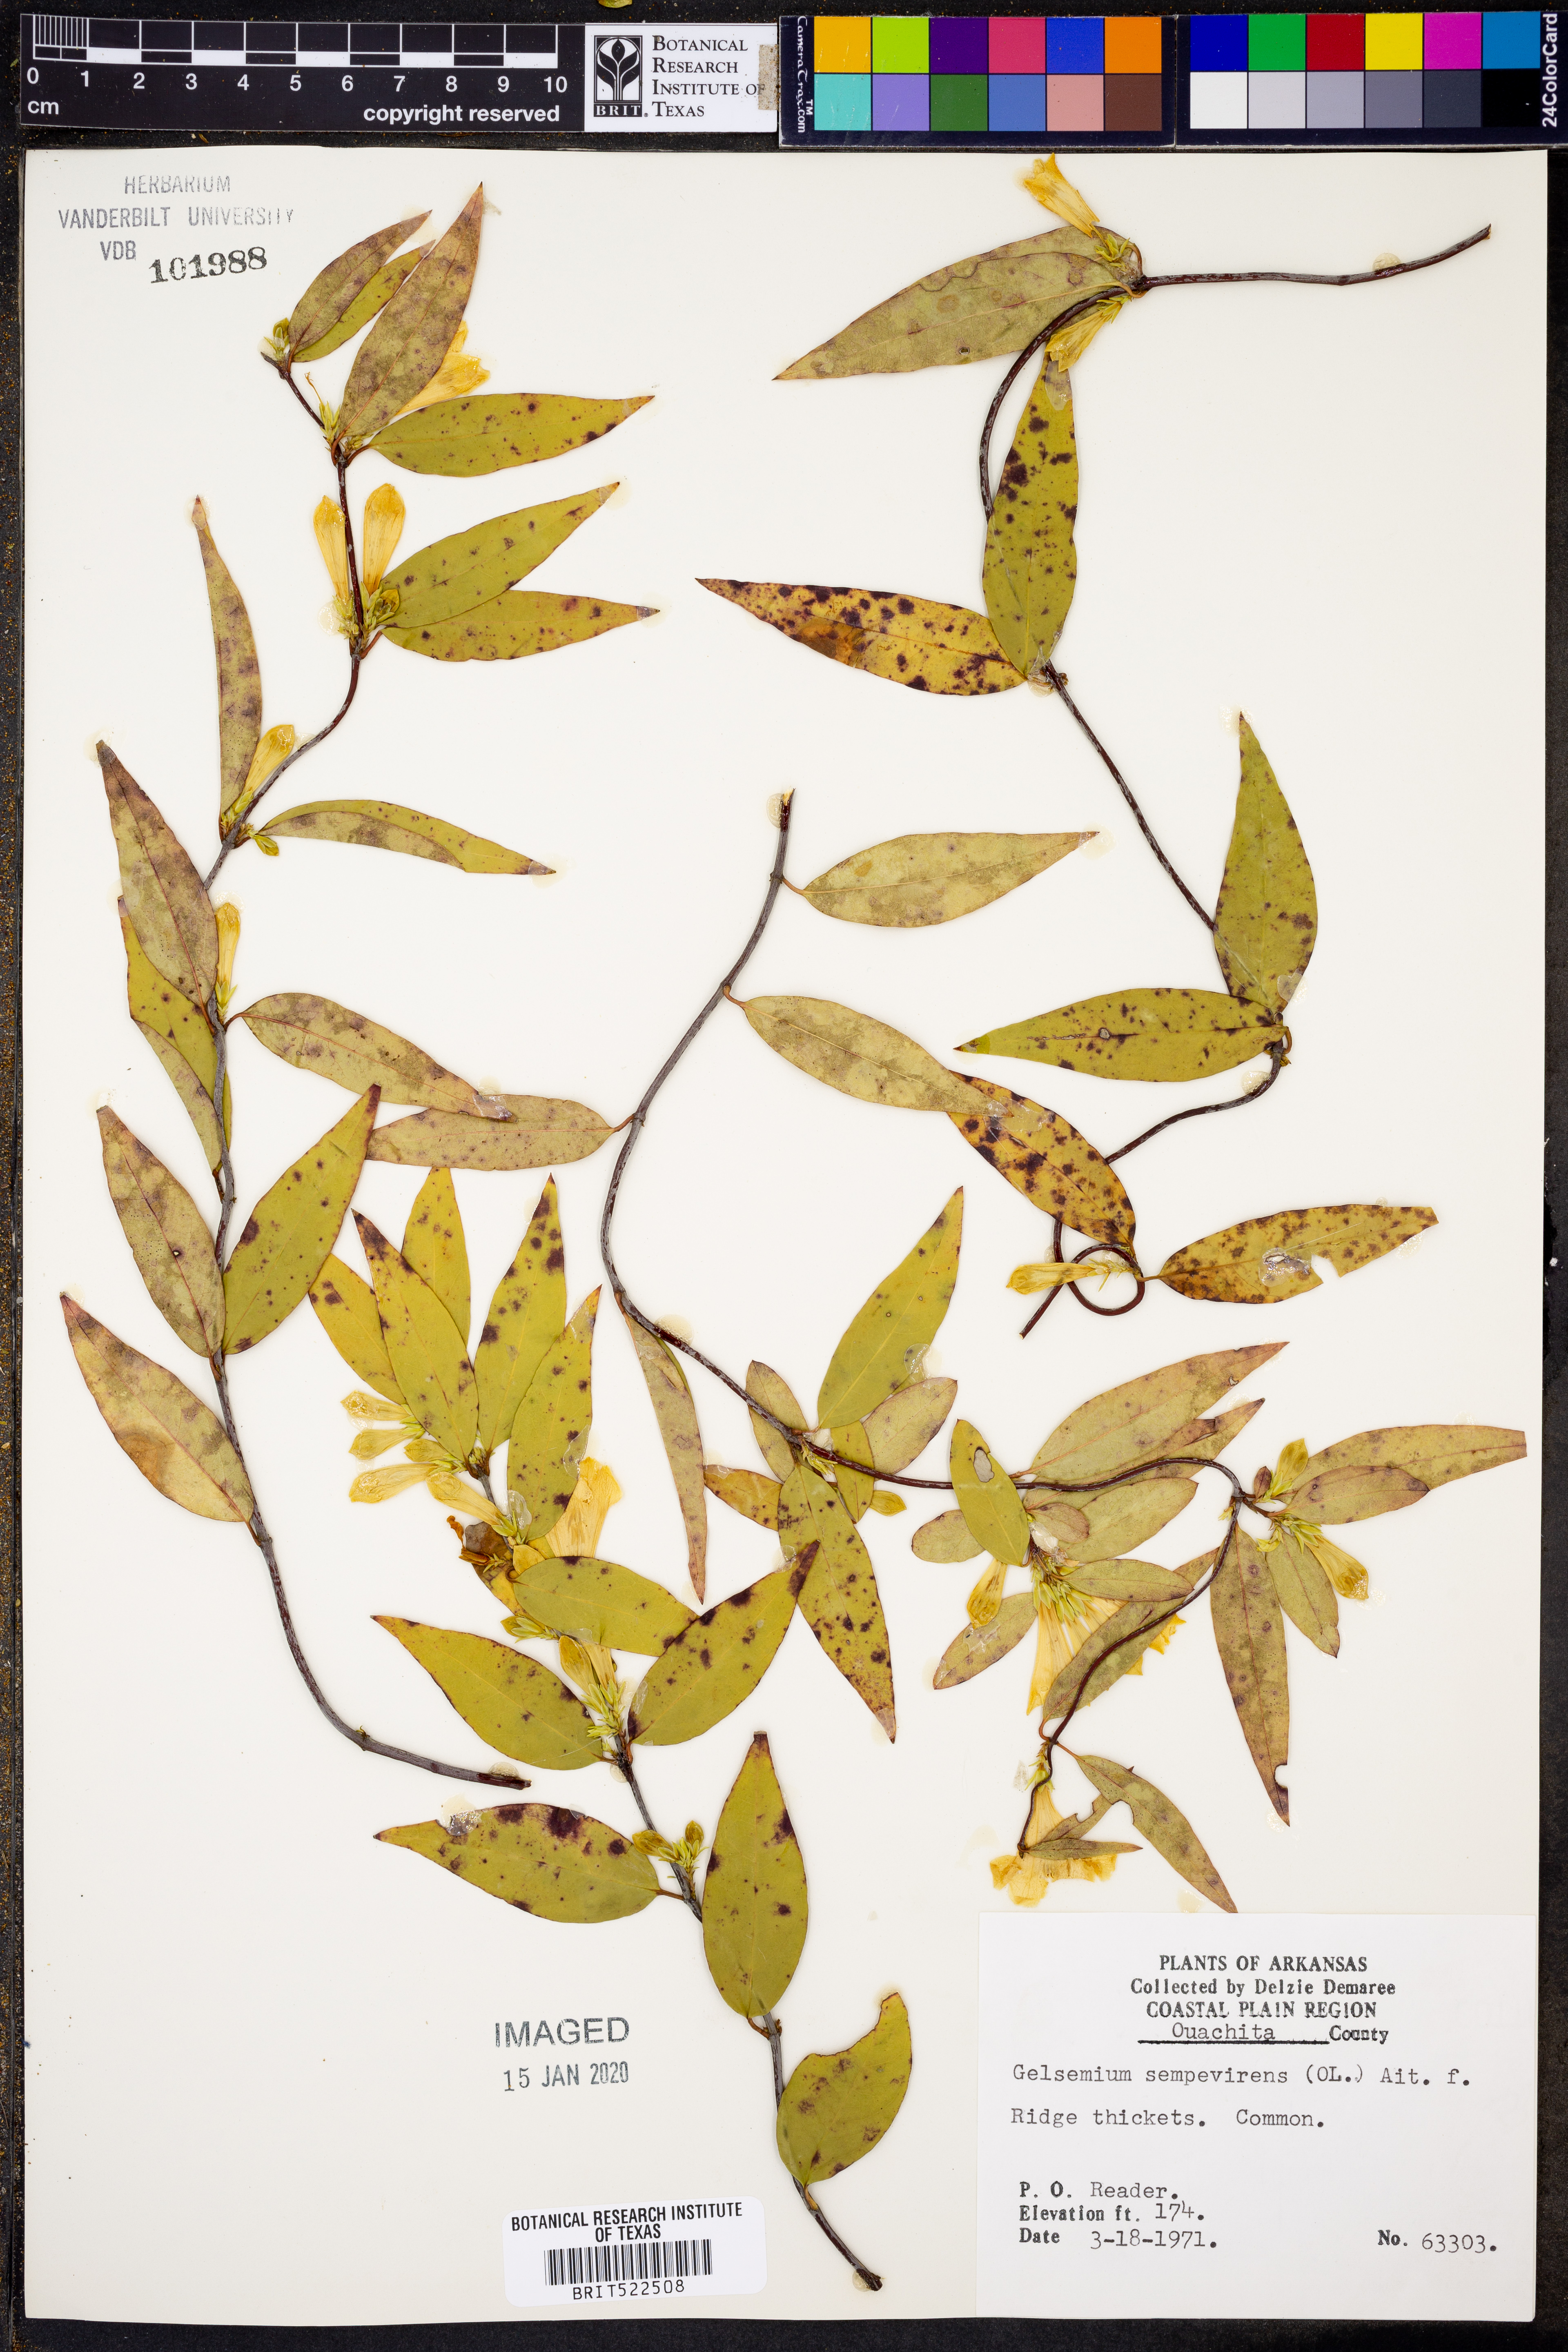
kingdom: Plantae
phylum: Tracheophyta
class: Magnoliopsida
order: Gentianales
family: Gelsemiaceae
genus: Gelsemium
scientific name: Gelsemium sempervirens
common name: Carolina-jasmine
